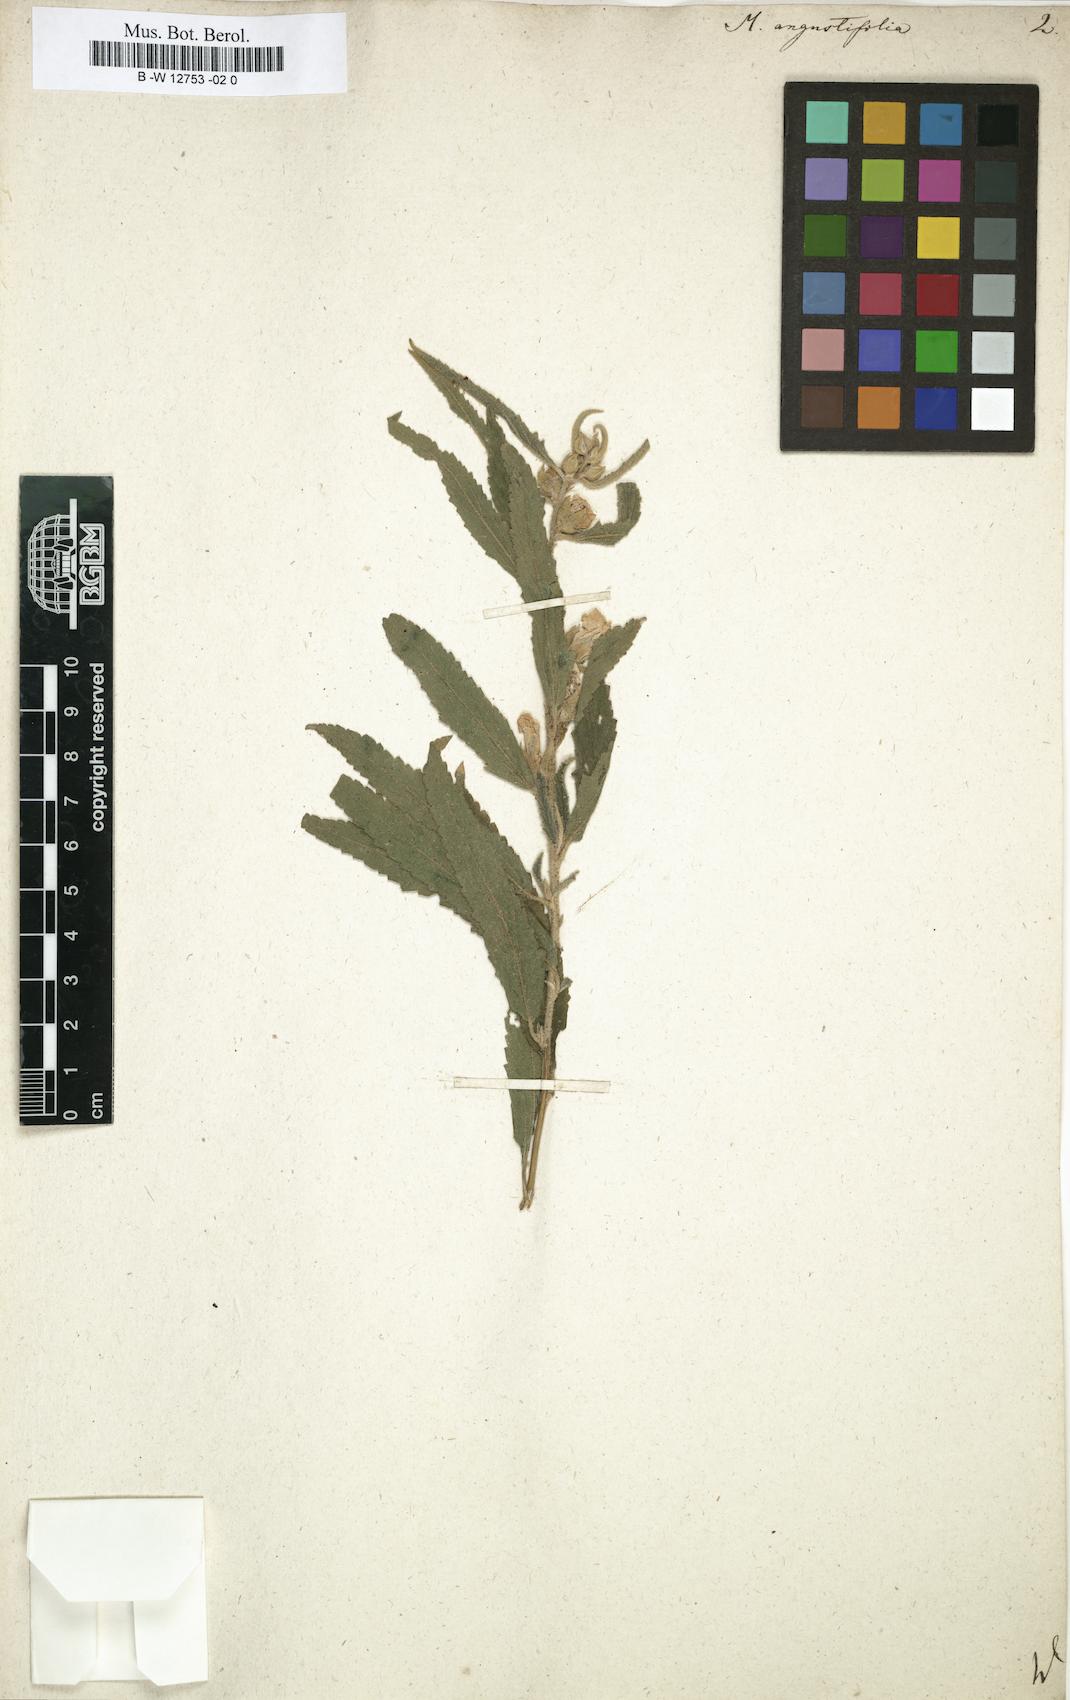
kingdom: Plantae
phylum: Tracheophyta
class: Magnoliopsida
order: Malvales
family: Malvaceae
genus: Sphaeralcea
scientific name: Sphaeralcea angustifolia
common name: Copper globe-mallow
